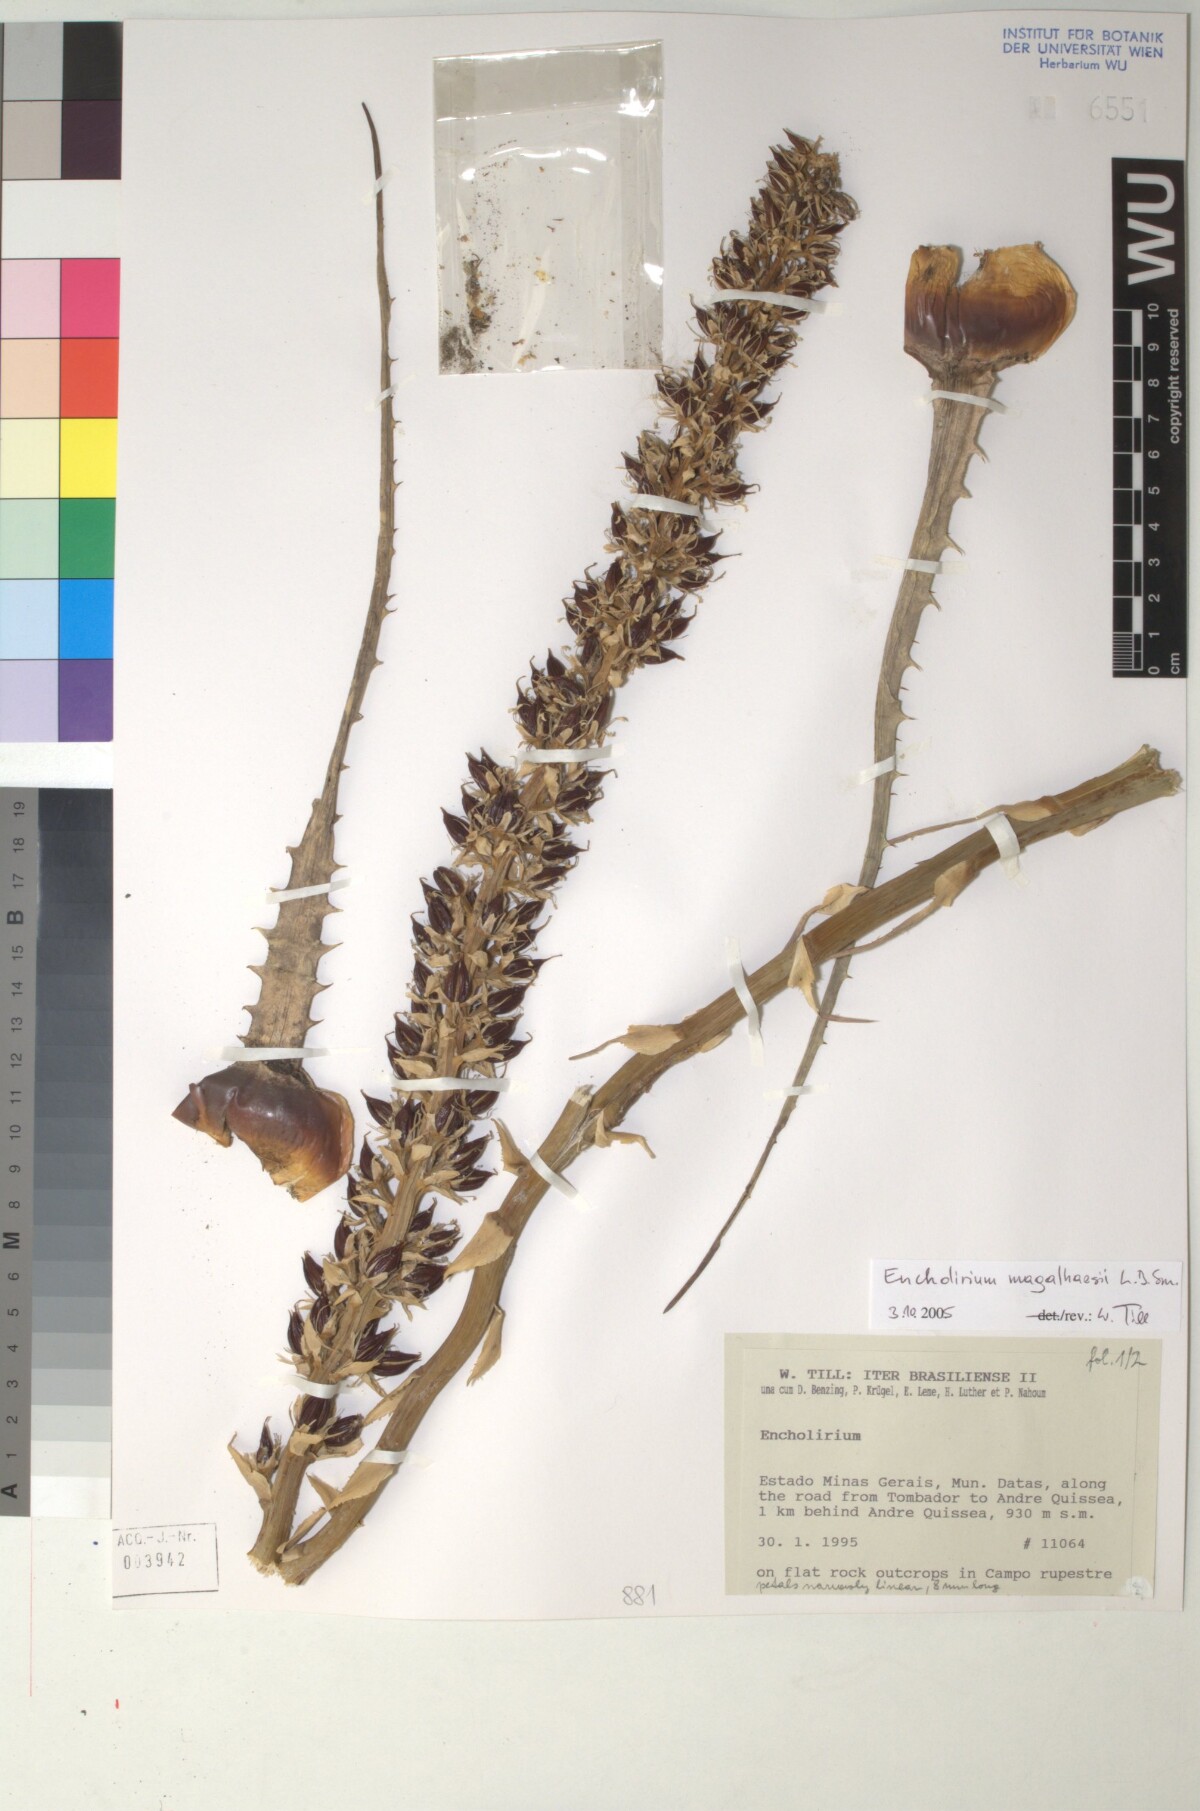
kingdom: Plantae
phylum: Tracheophyta
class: Liliopsida
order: Poales
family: Bromeliaceae
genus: Encholirium
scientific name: Encholirium magalhaesii
